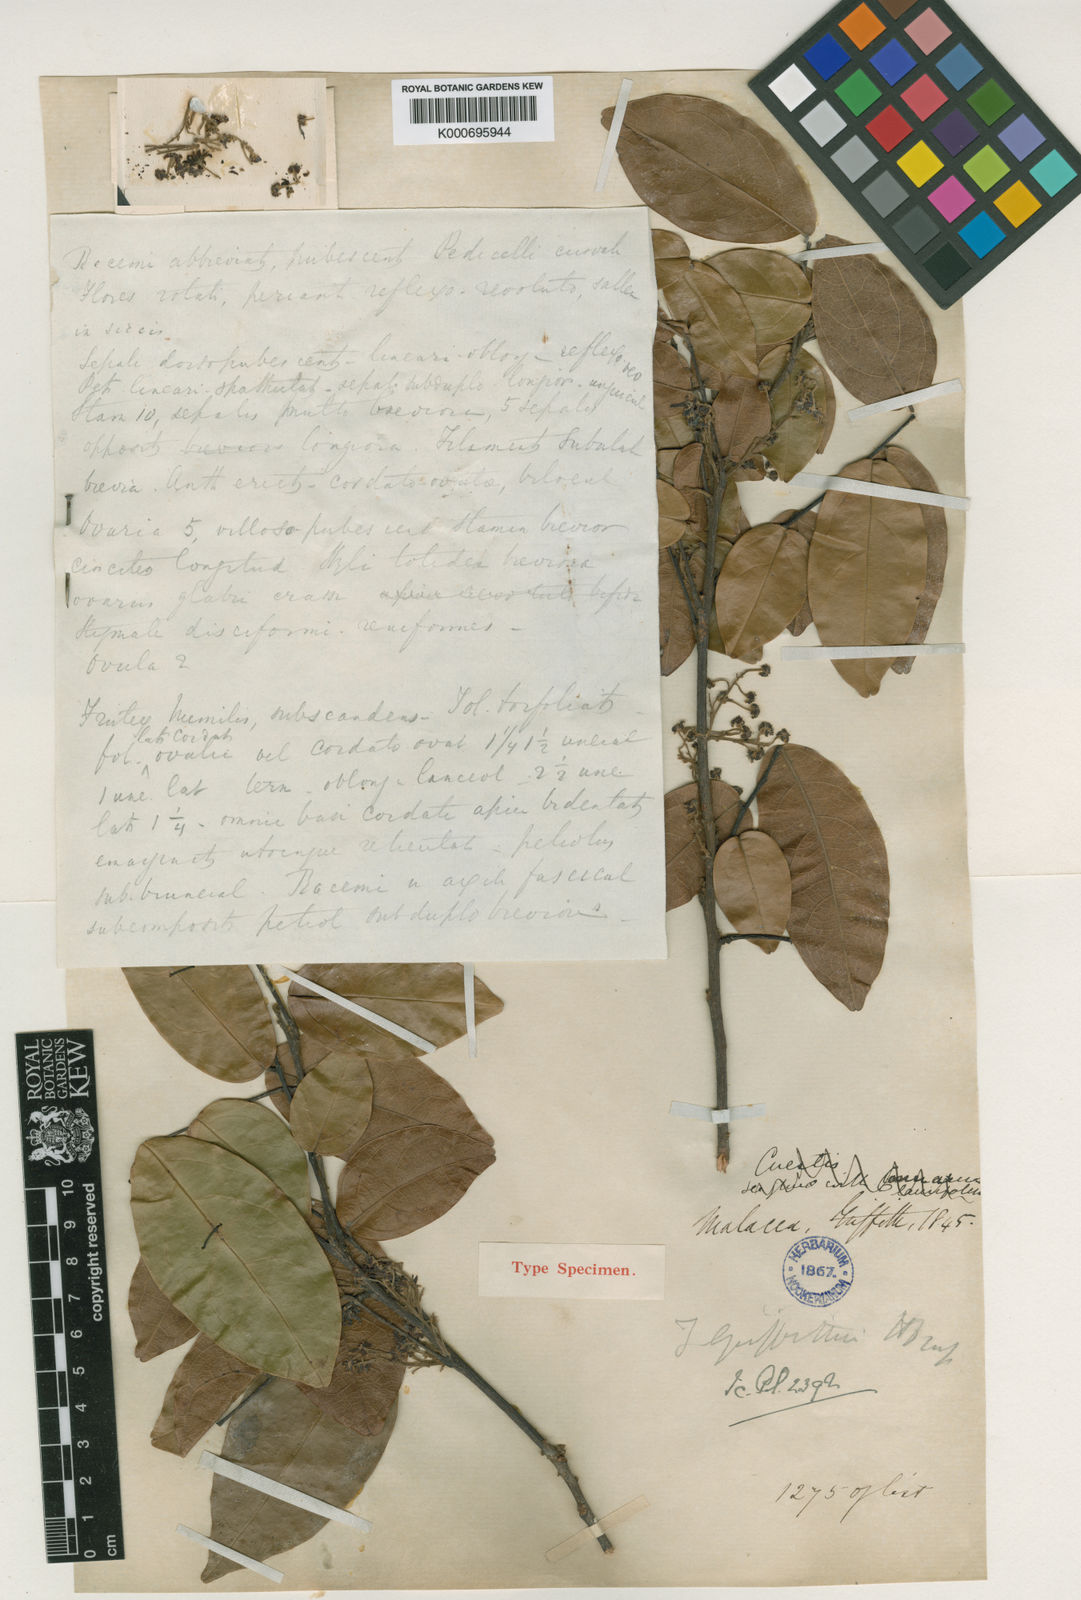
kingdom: Plantae
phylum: Tracheophyta
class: Magnoliopsida
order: Oxalidales
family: Connaraceae
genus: Rourea
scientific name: Rourea acutipetala
